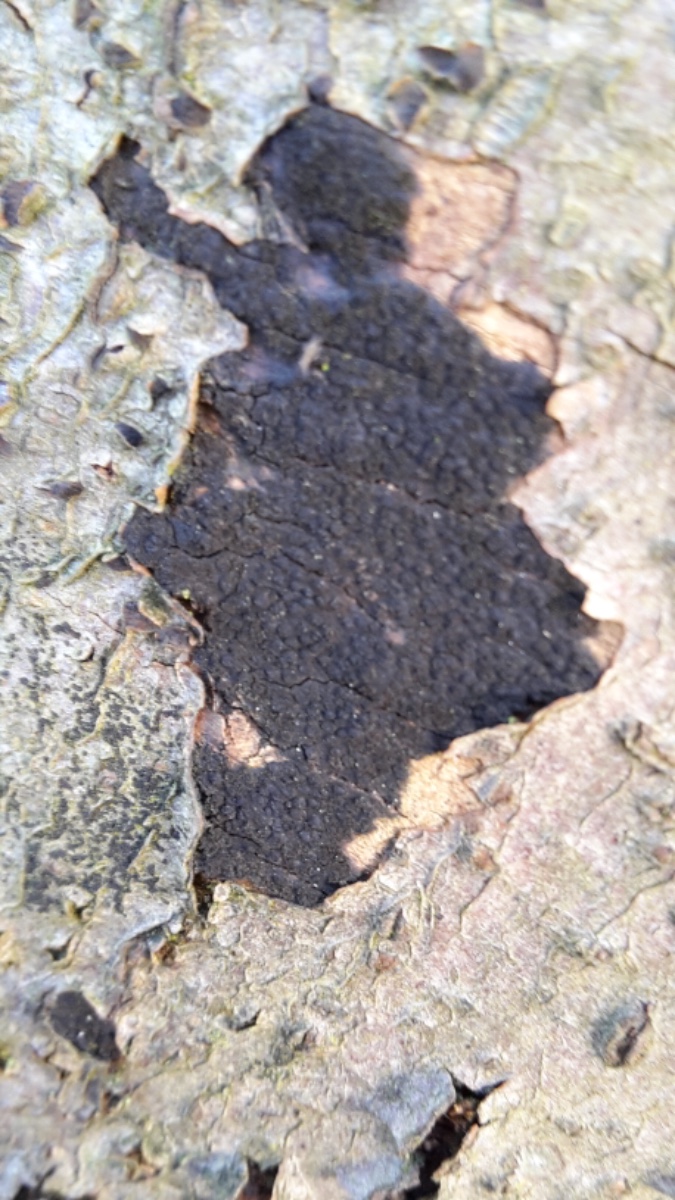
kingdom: Fungi
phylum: Ascomycota
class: Sordariomycetes
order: Xylariales
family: Diatrypaceae
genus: Eutypa
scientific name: Eutypa spinosa
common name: grov kulskorpe
